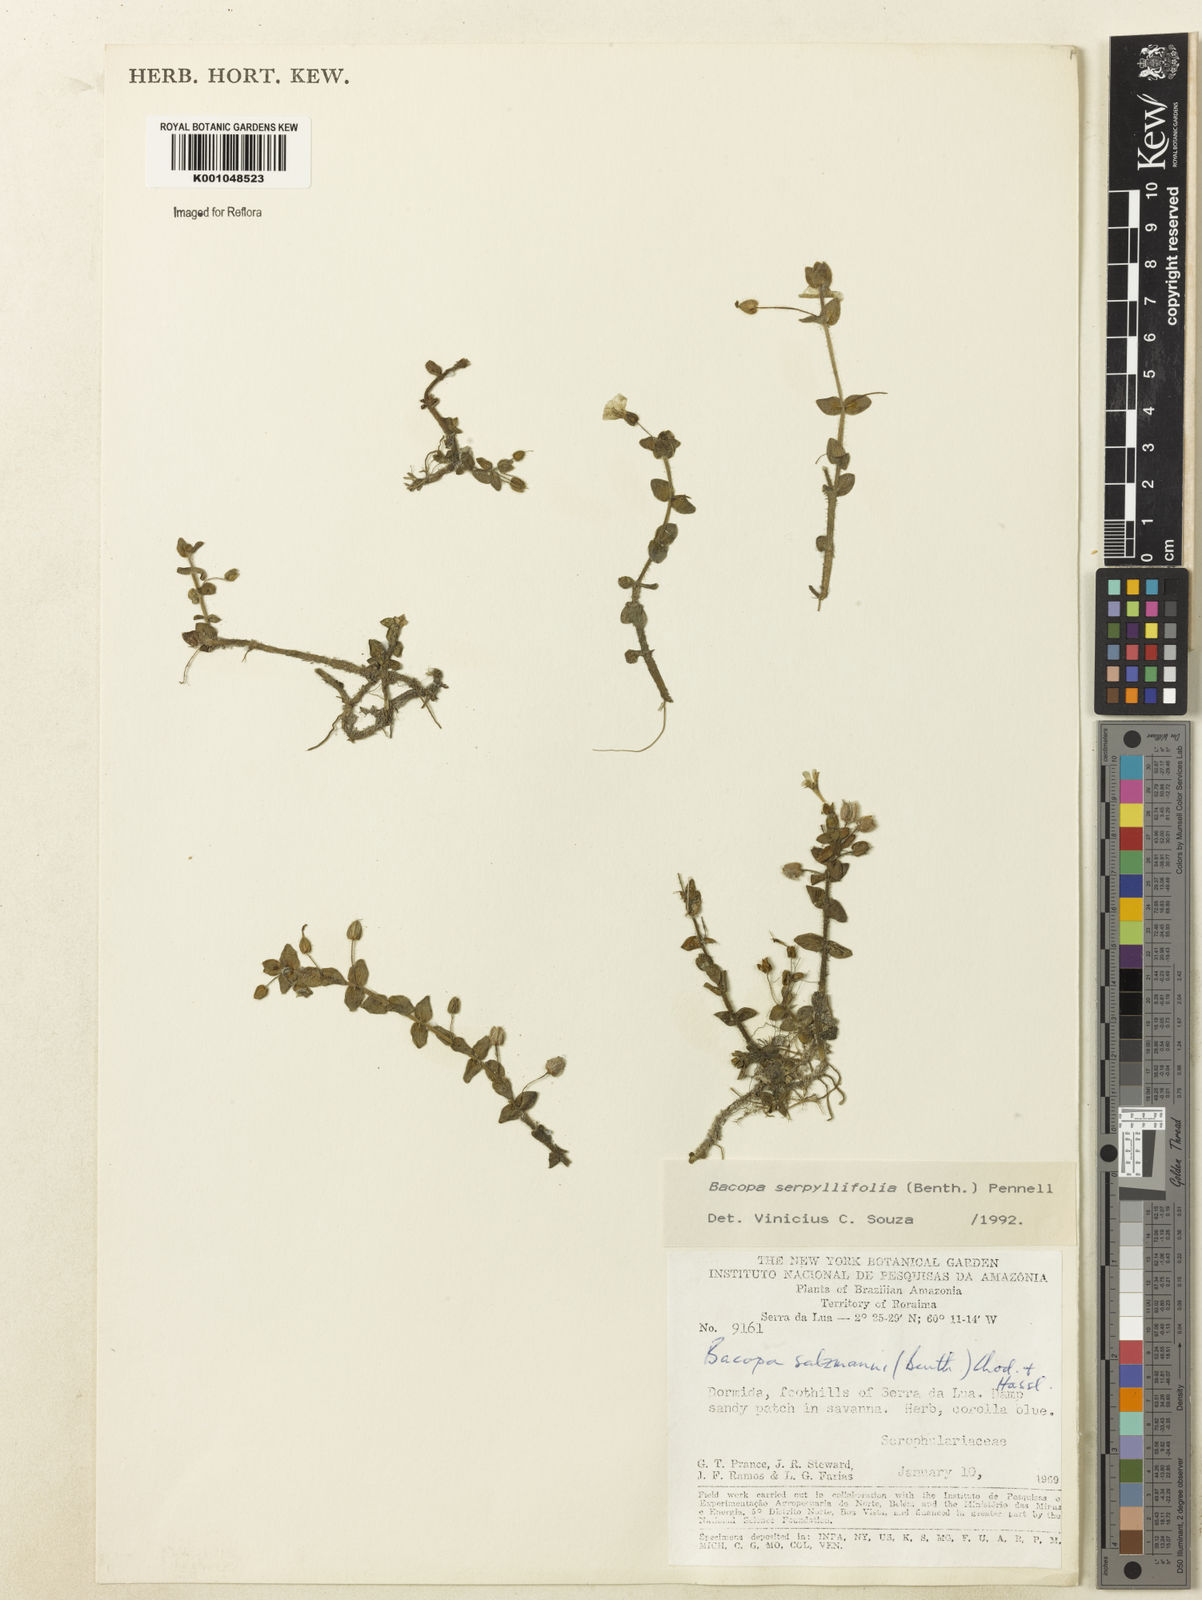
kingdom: Plantae
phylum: Tracheophyta
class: Magnoliopsida
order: Lamiales
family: Plantaginaceae
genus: Bacopa
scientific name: Bacopa serpyllifolia
